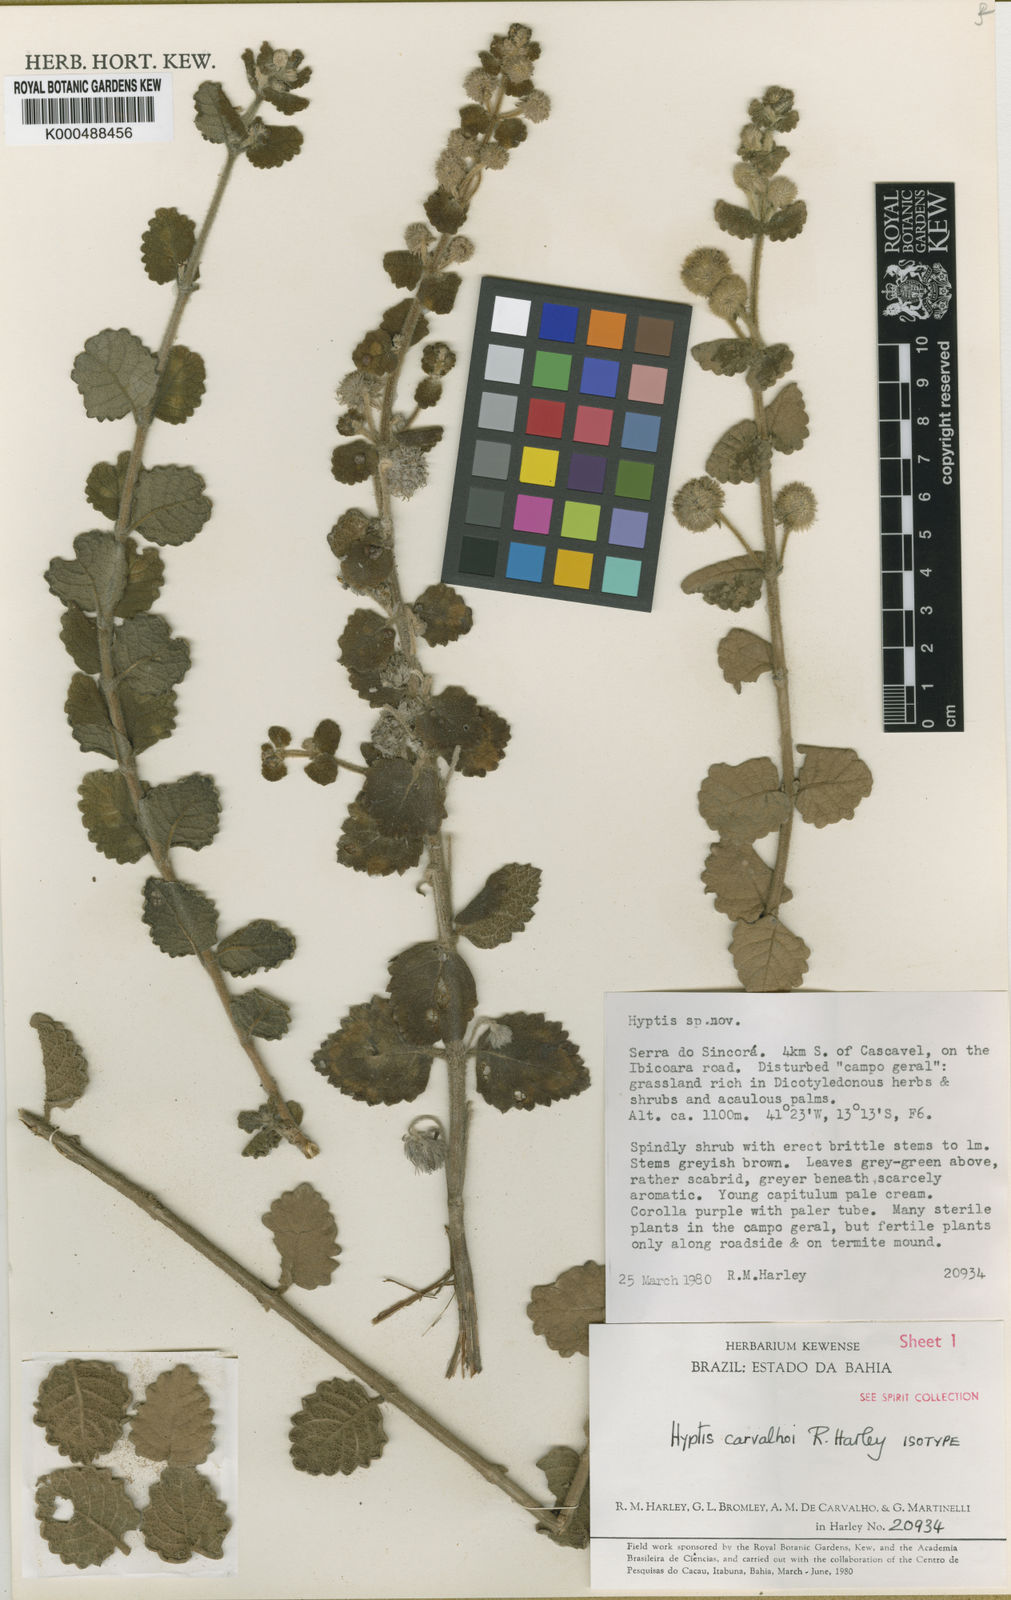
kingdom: Plantae
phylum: Tracheophyta
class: Magnoliopsida
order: Lamiales
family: Lamiaceae
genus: Medusantha
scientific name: Medusantha carvalhoi
